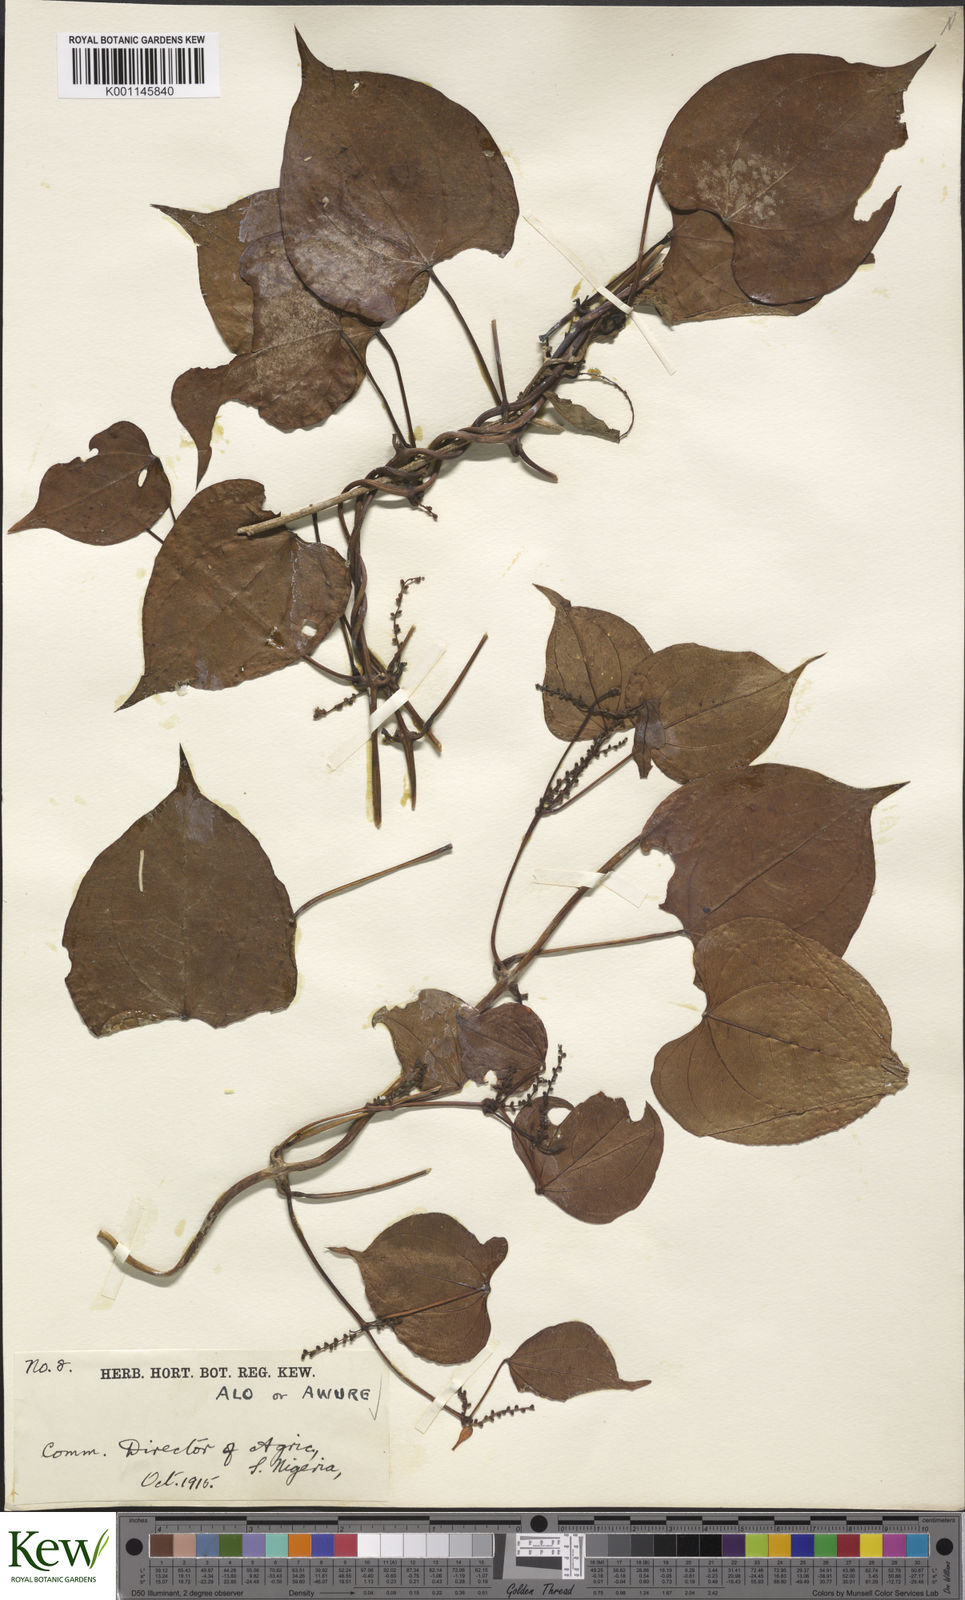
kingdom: Plantae
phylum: Tracheophyta
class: Liliopsida
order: Dioscoreales
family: Dioscoreaceae
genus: Dioscorea
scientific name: Dioscorea cayenensis
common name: Attoto yam
